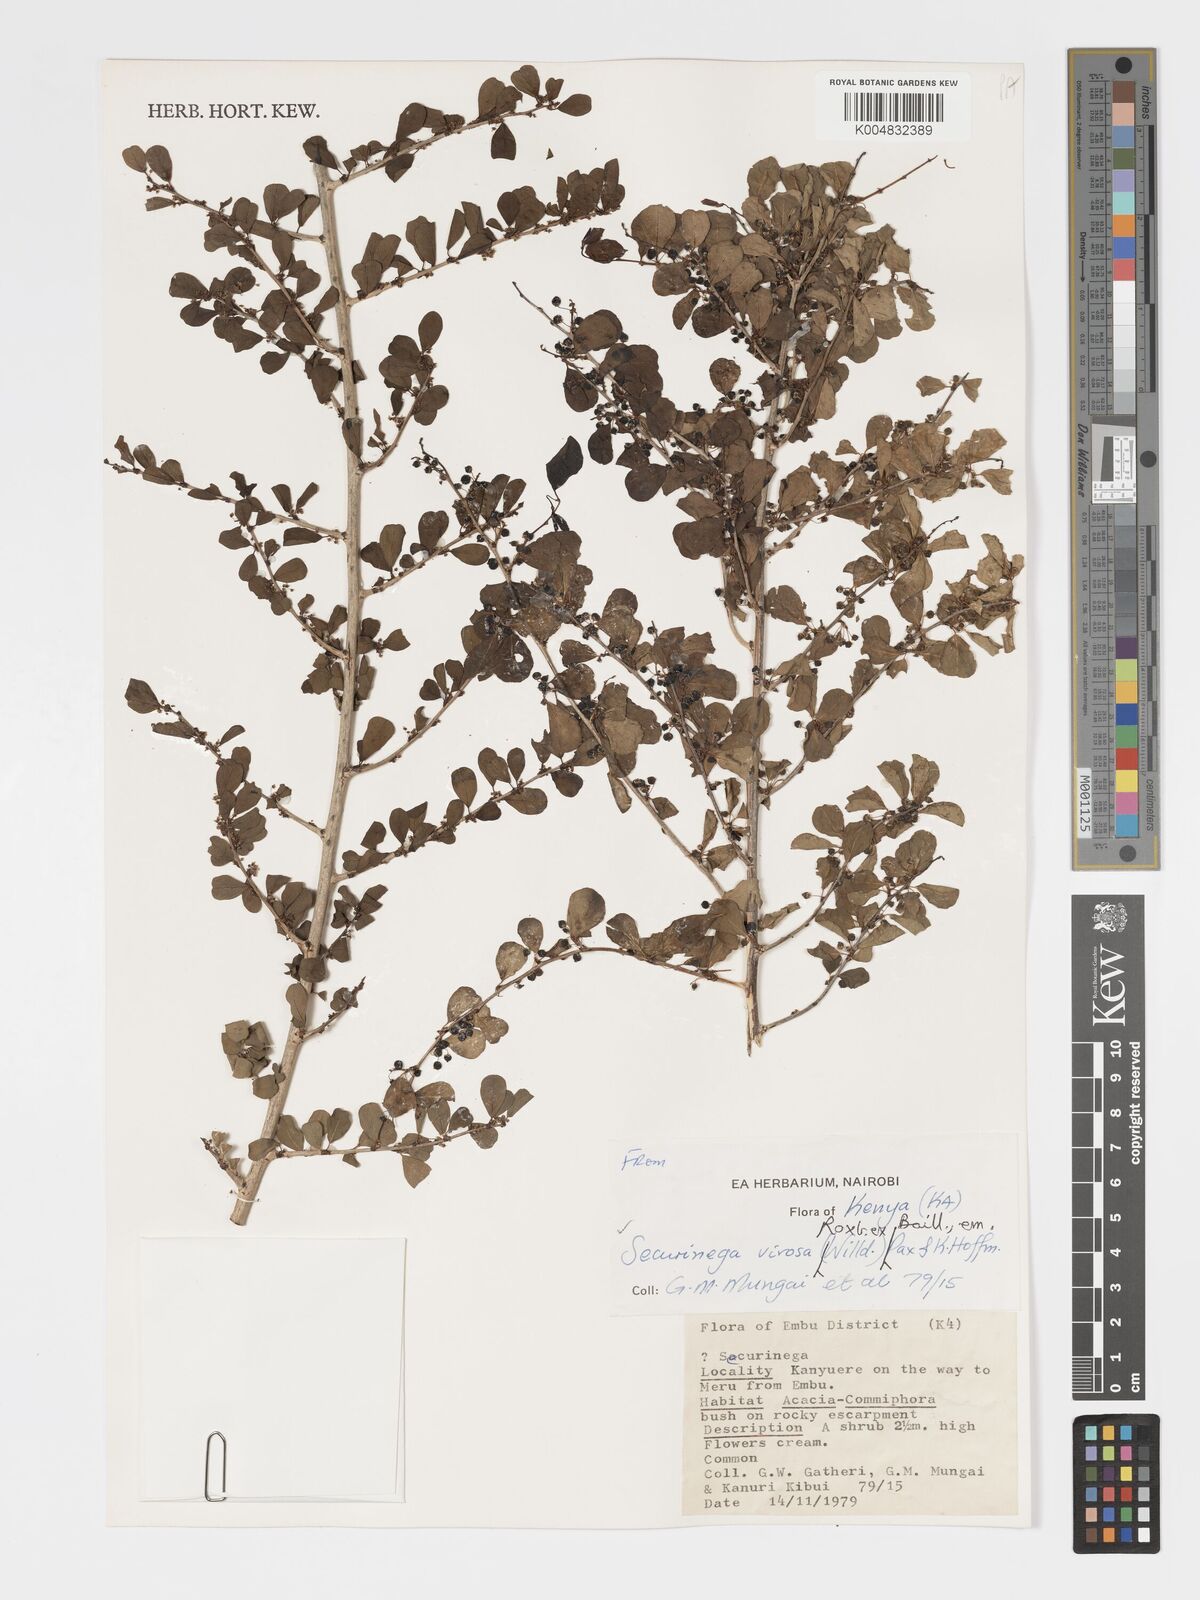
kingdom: Plantae
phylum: Tracheophyta
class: Magnoliopsida
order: Malpighiales
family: Phyllanthaceae
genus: Flueggea
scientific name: Flueggea virosa
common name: Common bushweed
